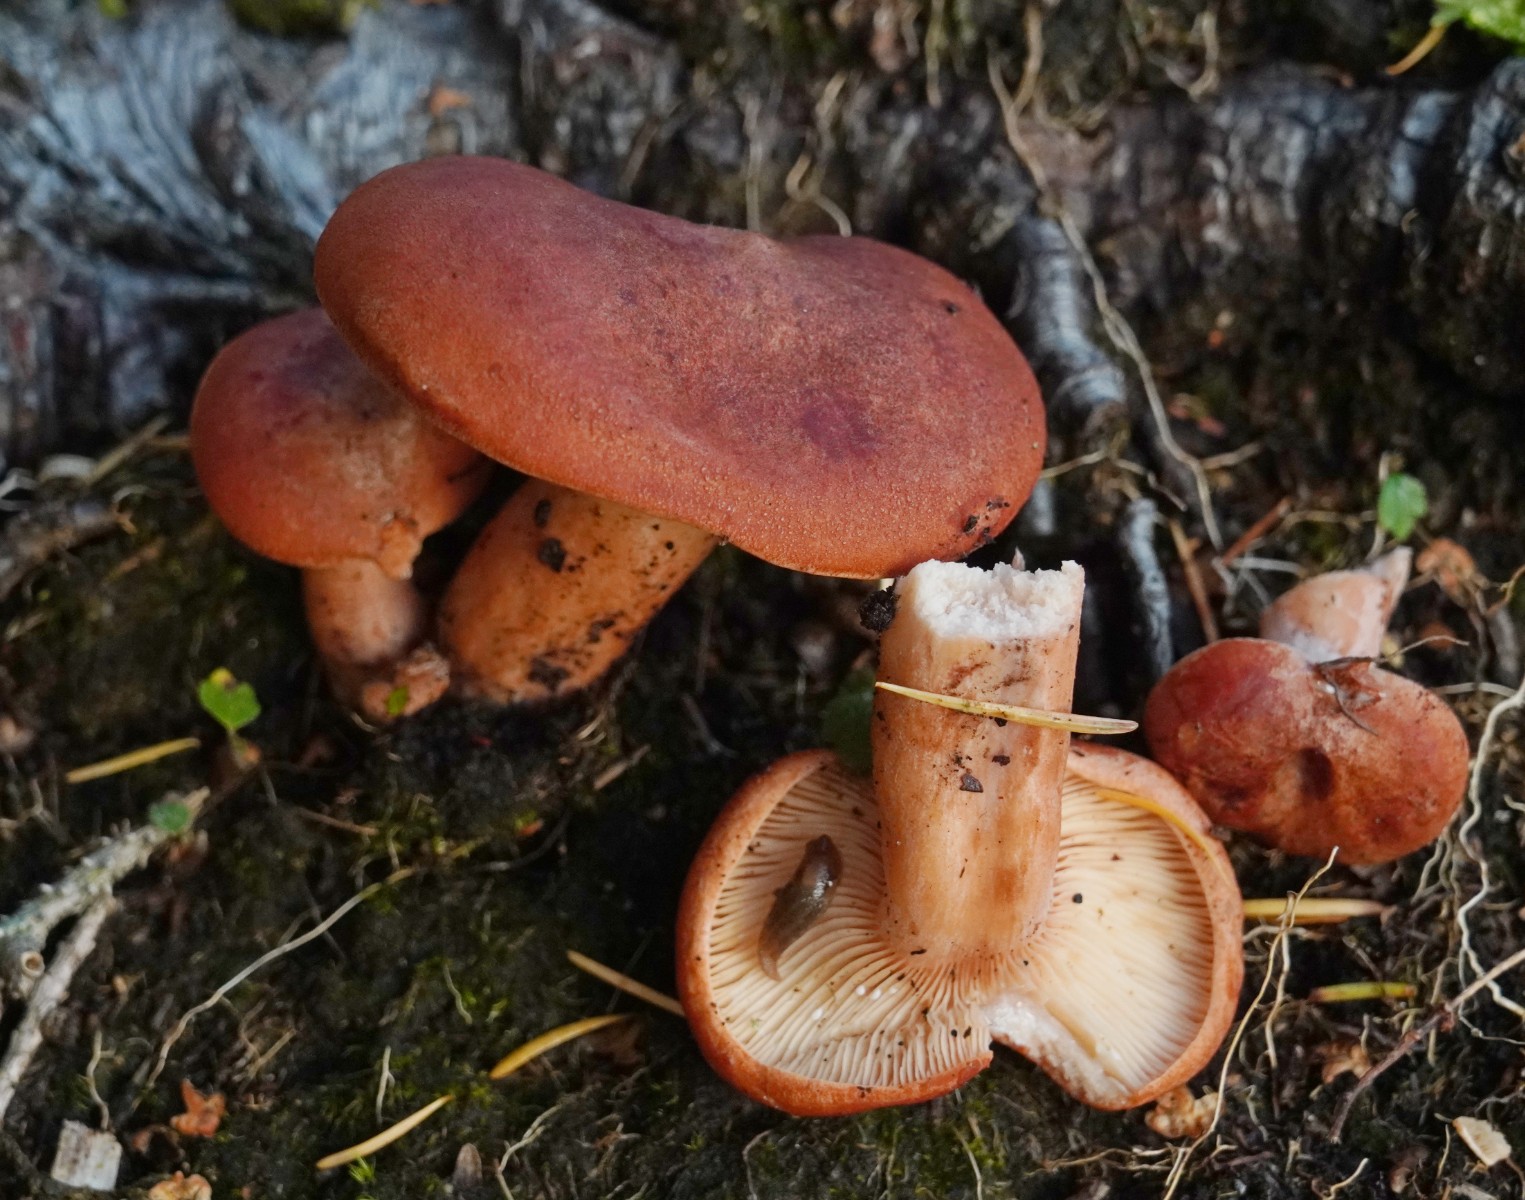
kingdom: Fungi
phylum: Basidiomycota
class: Agaricomycetes
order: Russulales
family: Russulaceae
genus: Lactarius
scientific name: Lactarius rufus
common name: rødbrun mælkehat
